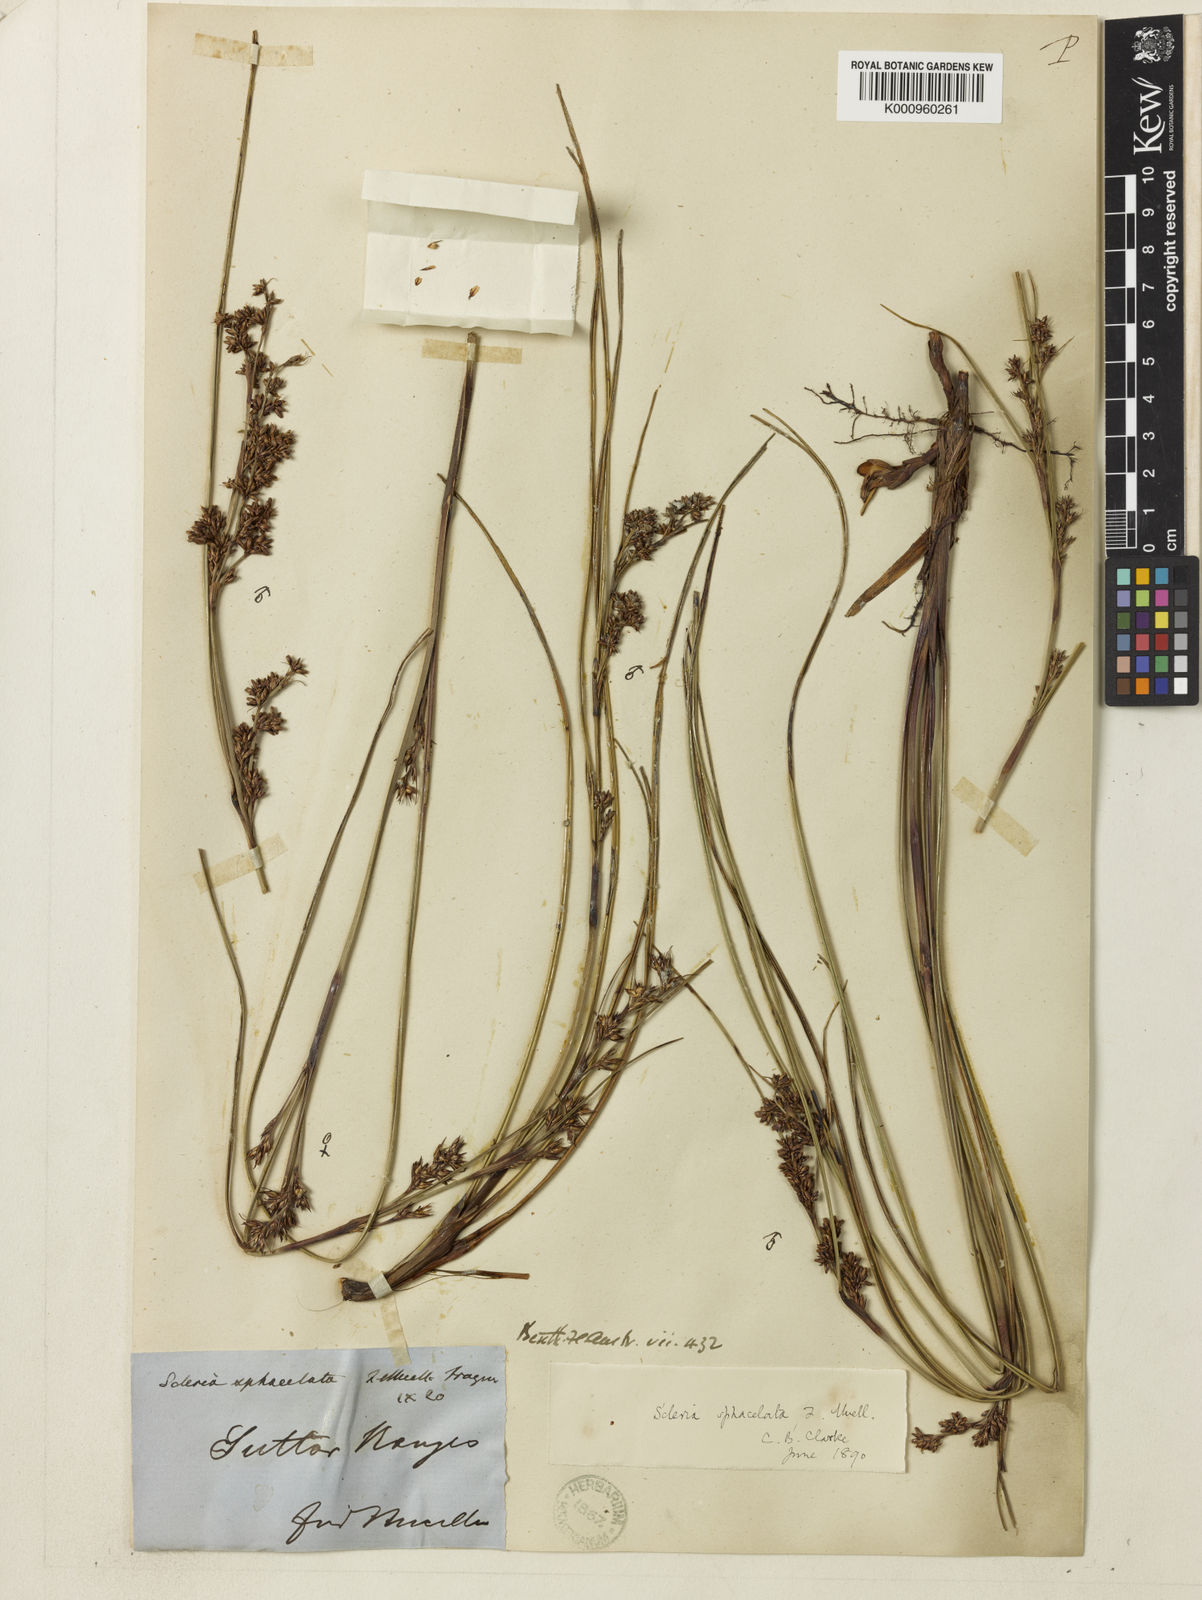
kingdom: Plantae
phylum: Tracheophyta
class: Liliopsida
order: Poales
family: Cyperaceae
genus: Scleria
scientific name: Scleria sphacelata
